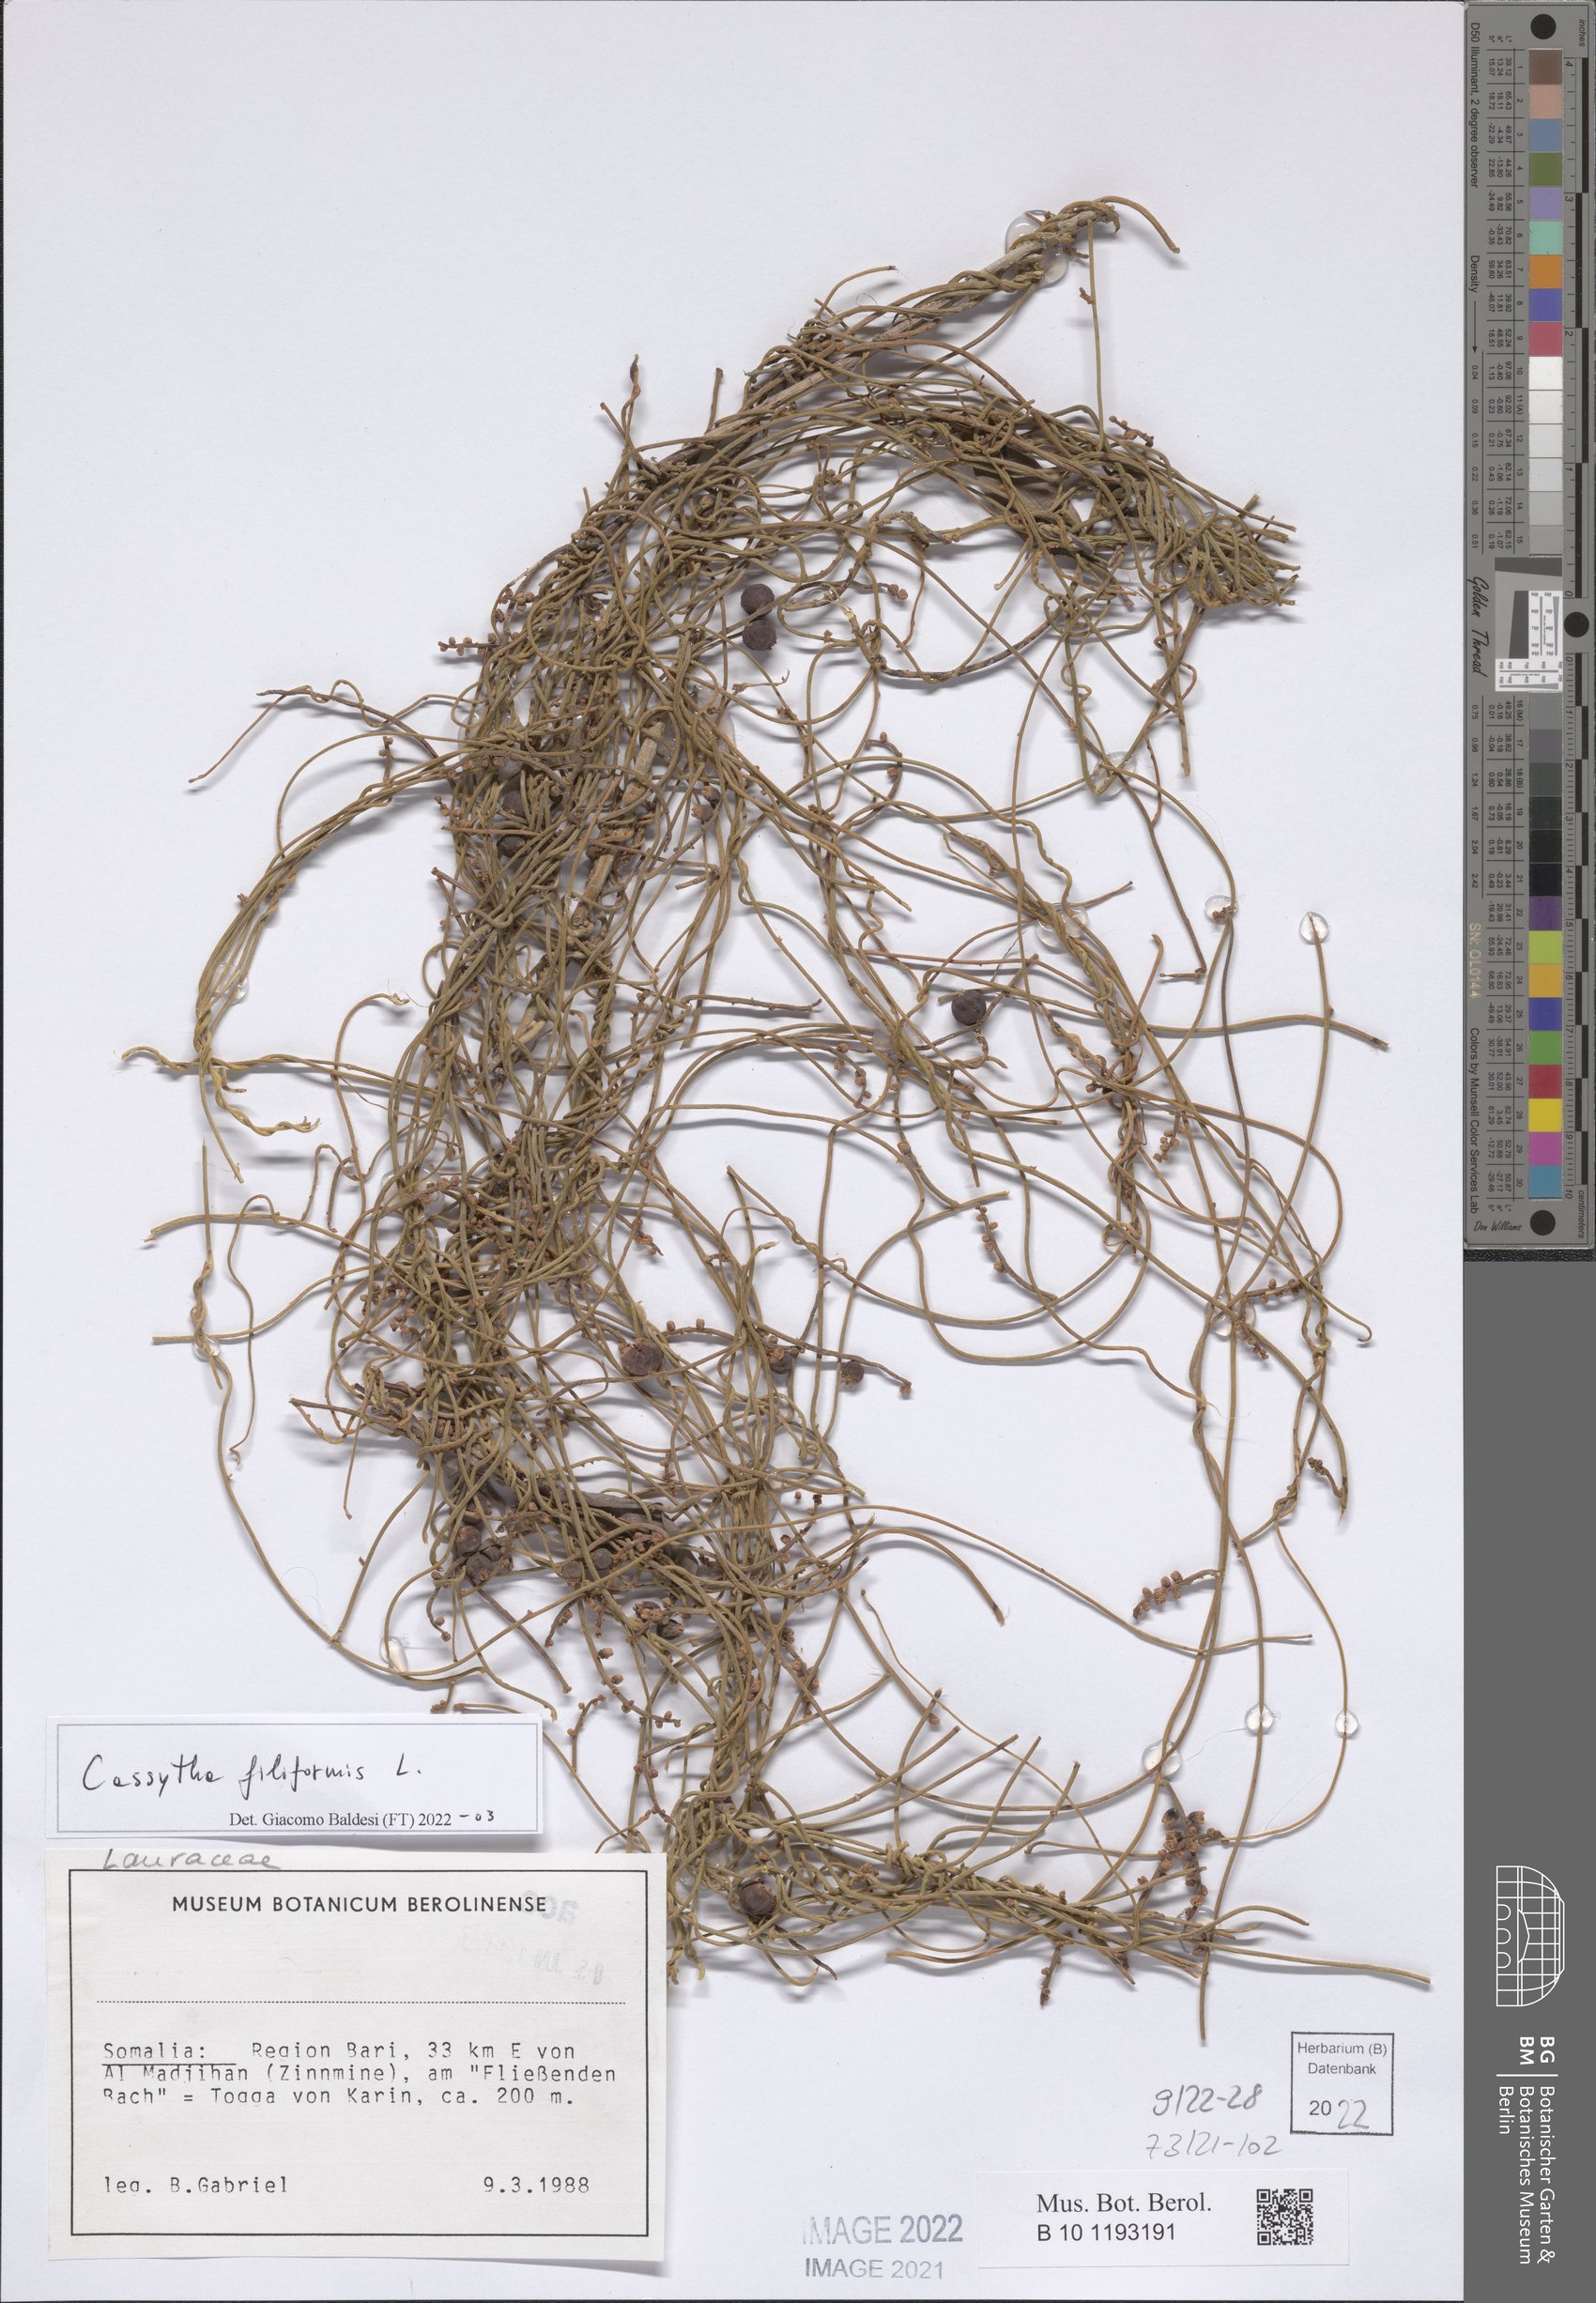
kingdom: Plantae
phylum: Tracheophyta
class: Magnoliopsida
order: Laurales
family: Lauraceae
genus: Cassytha
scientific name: Cassytha filiformis
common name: Dodder-laurel
